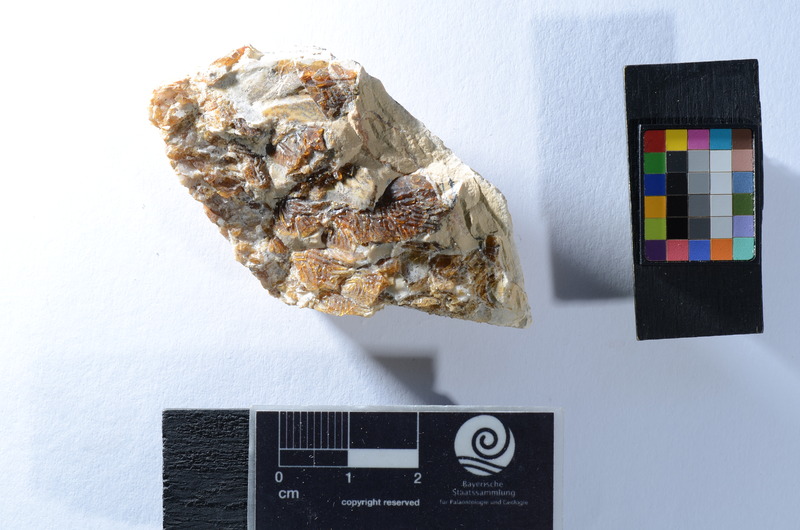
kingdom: Animalia
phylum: Chordata
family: Aspidorhynchidae
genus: Aspidorhynchus
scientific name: Aspidorhynchus
